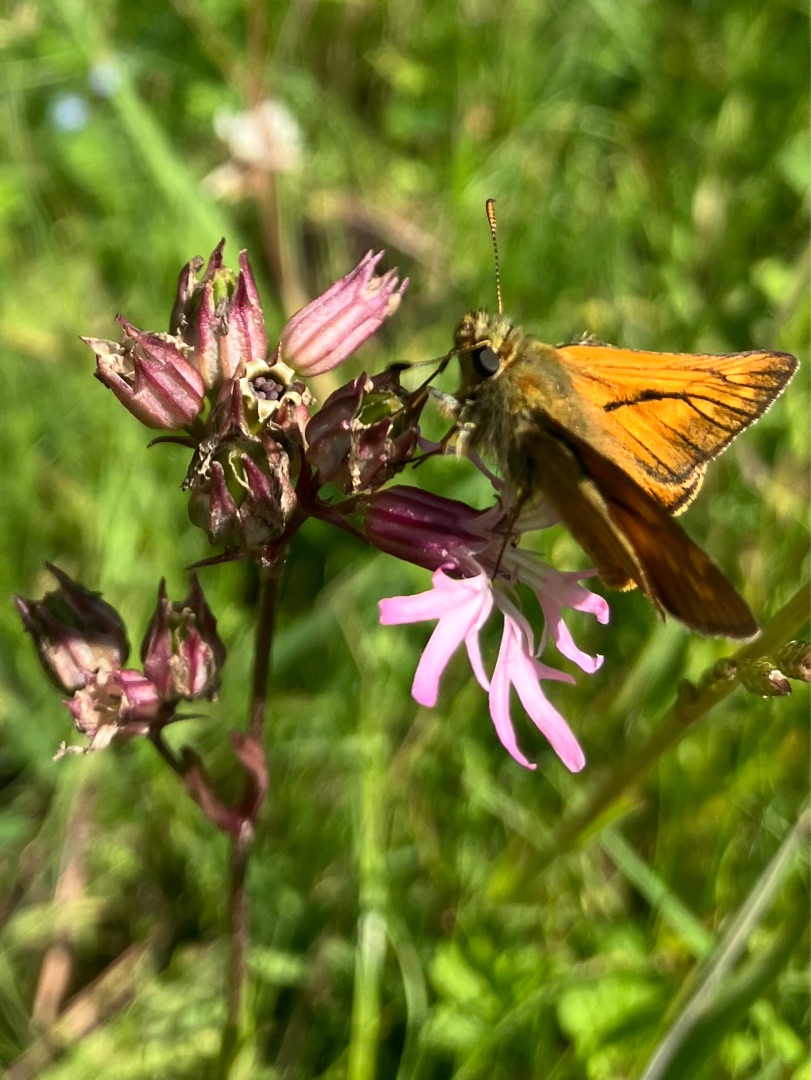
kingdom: Animalia
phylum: Arthropoda
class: Insecta
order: Lepidoptera
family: Hesperiidae
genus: Ochlodes
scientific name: Ochlodes venata
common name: Stor bredpande
